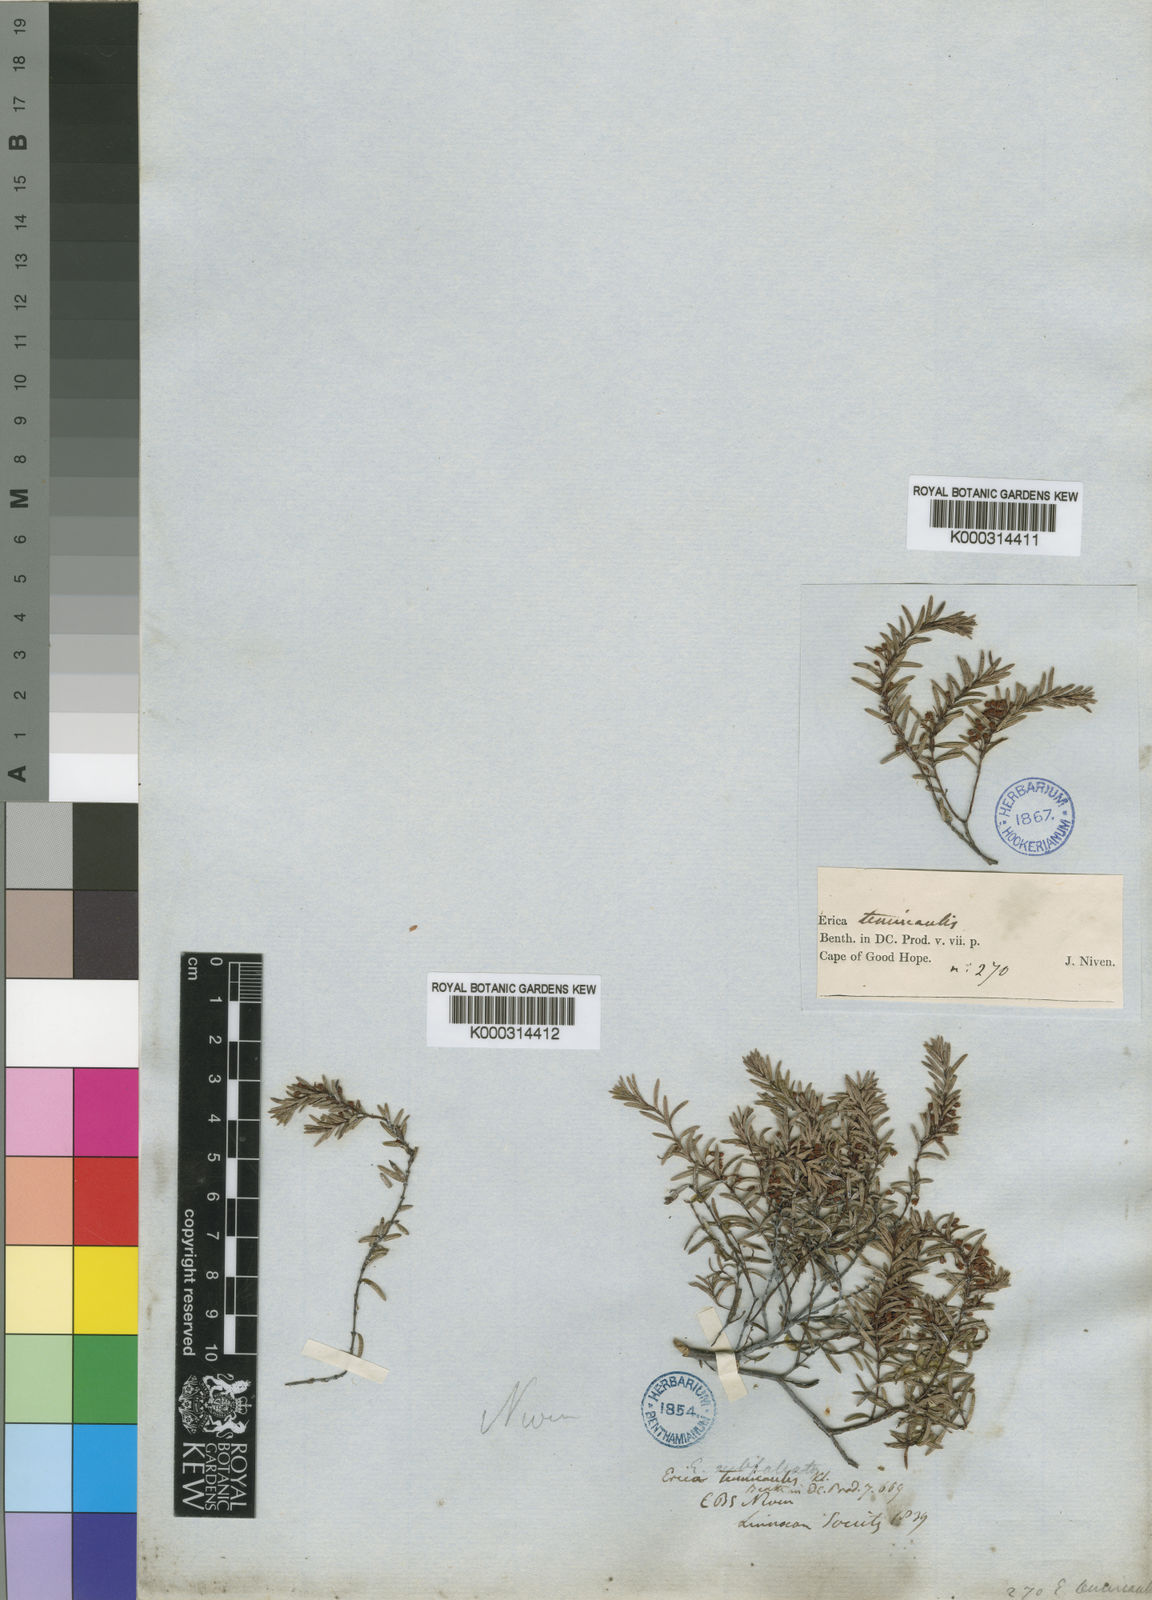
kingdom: Plantae
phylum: Tracheophyta
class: Magnoliopsida
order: Ericales
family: Ericaceae
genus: Erica
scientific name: Erica tenuicaulis
